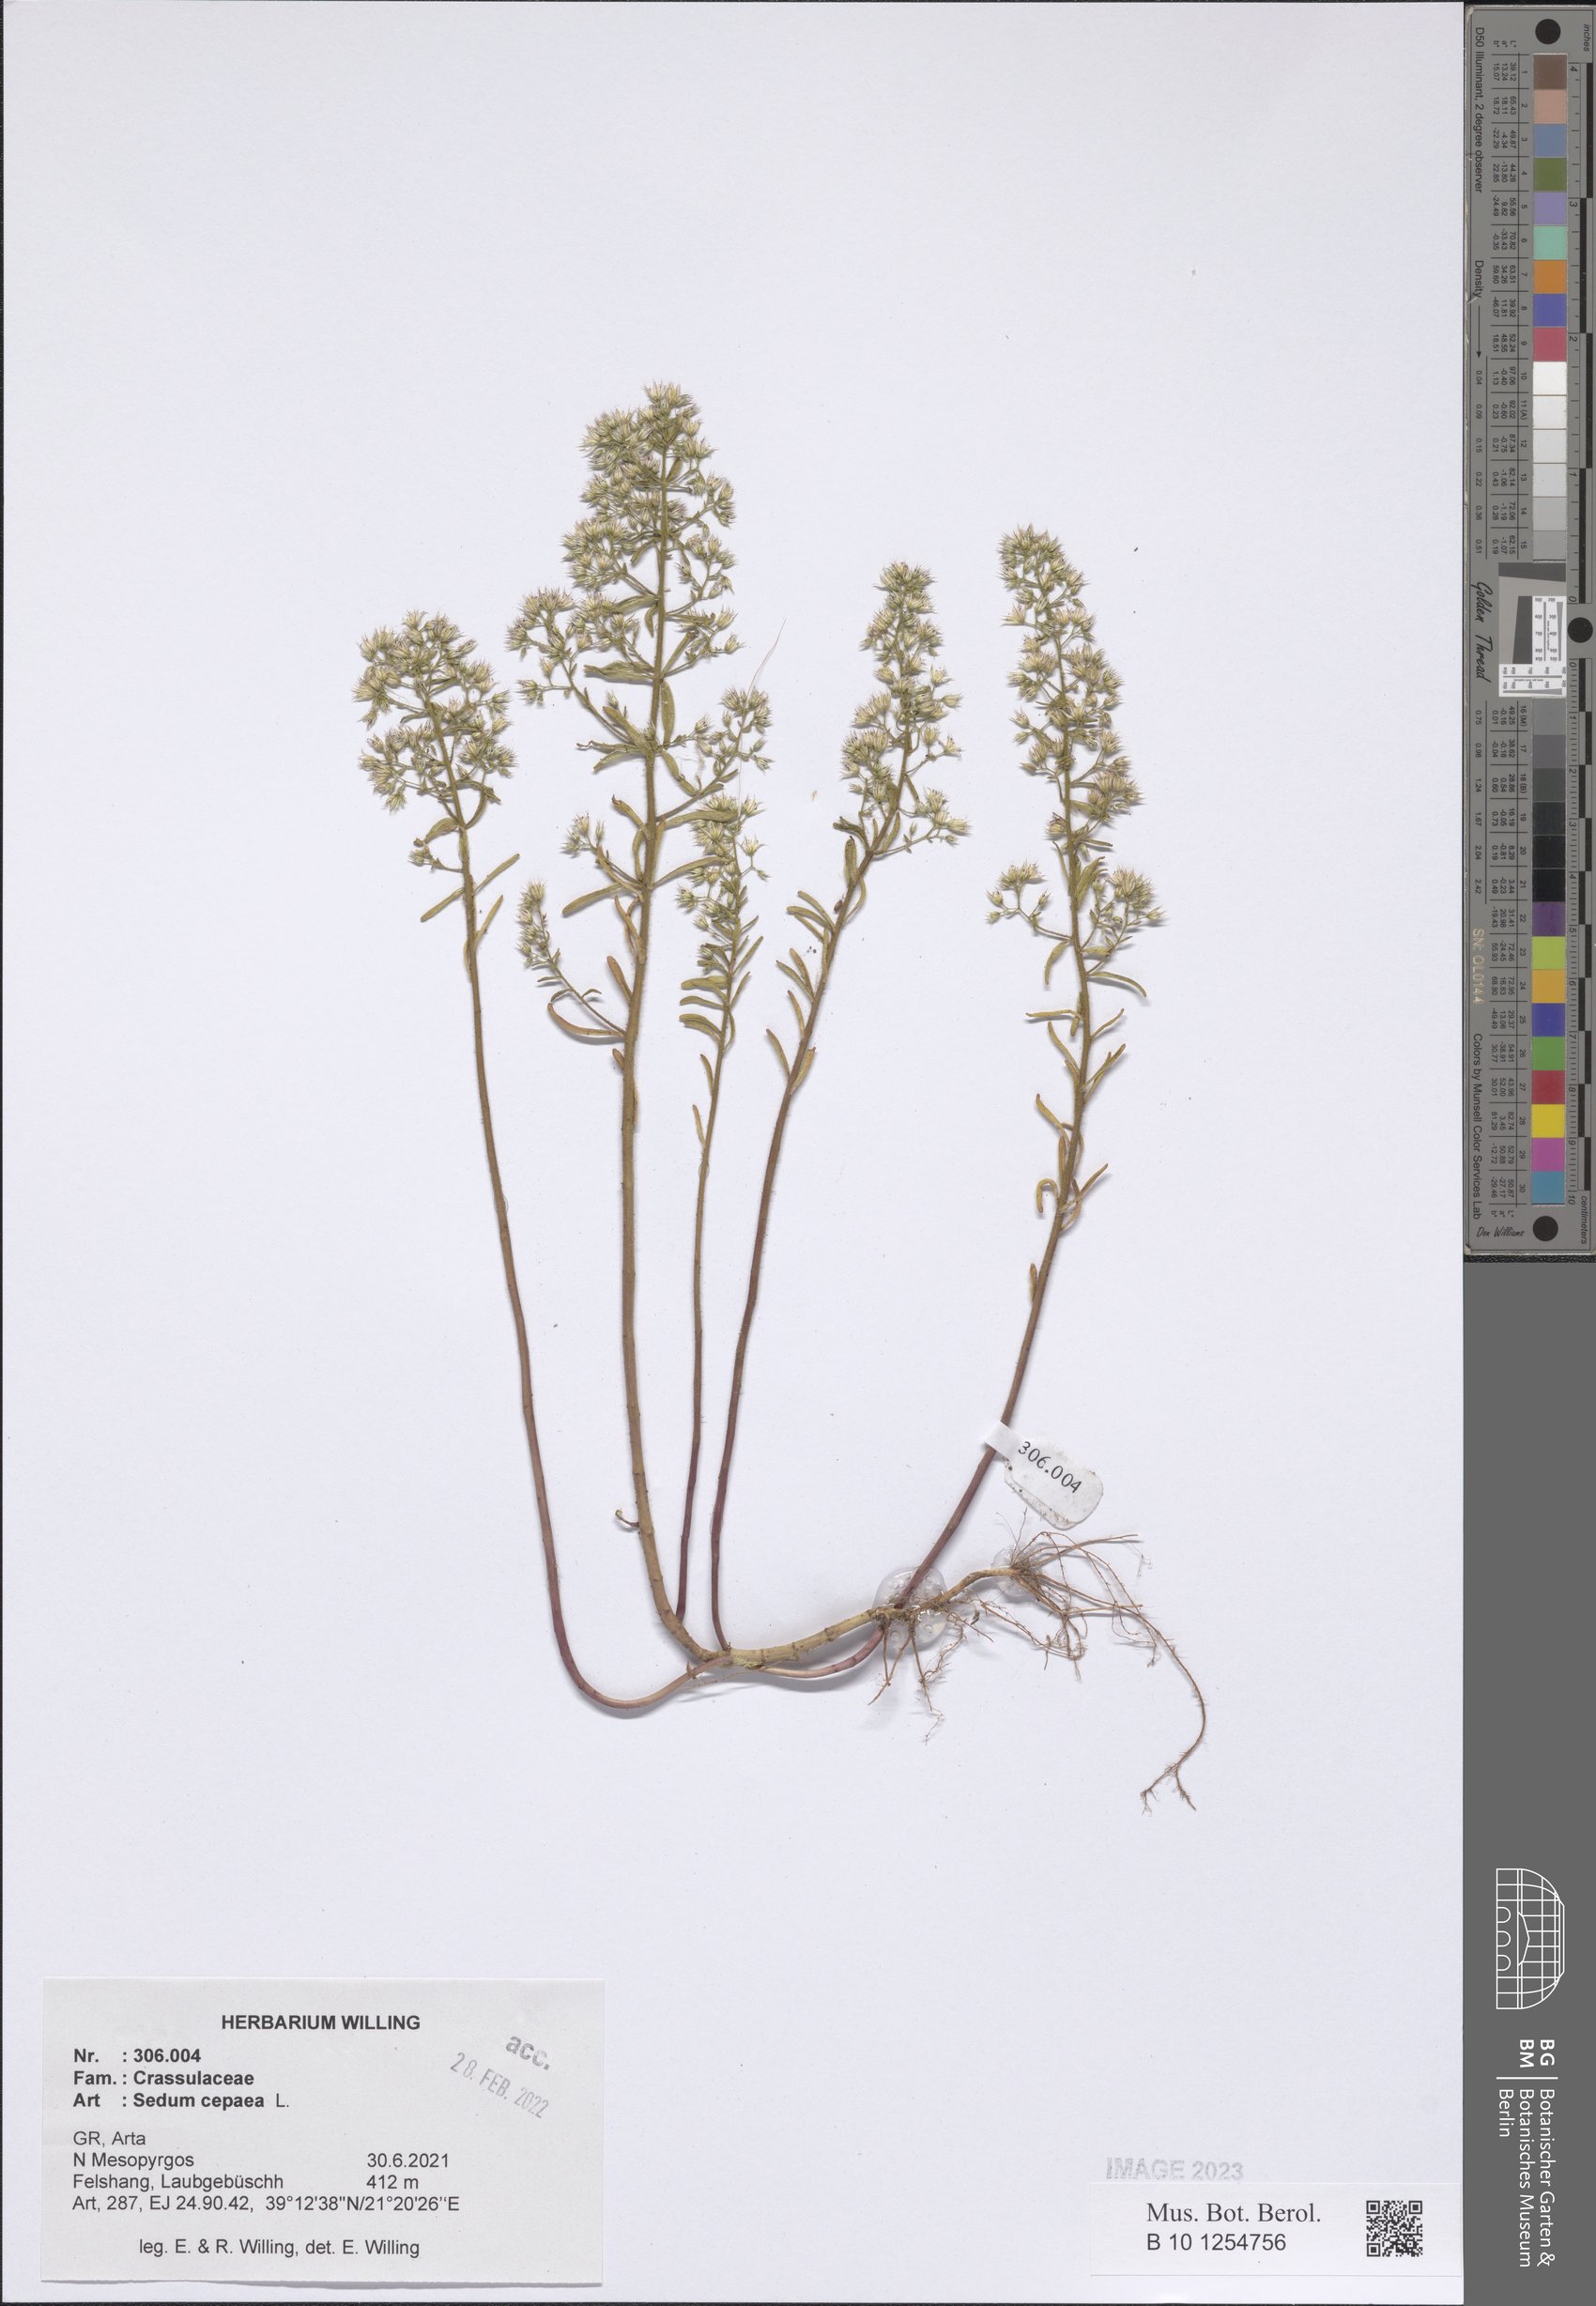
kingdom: Plantae
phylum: Tracheophyta
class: Magnoliopsida
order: Saxifragales
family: Crassulaceae
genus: Sedum
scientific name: Sedum cepaea
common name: Pink stonecrop
